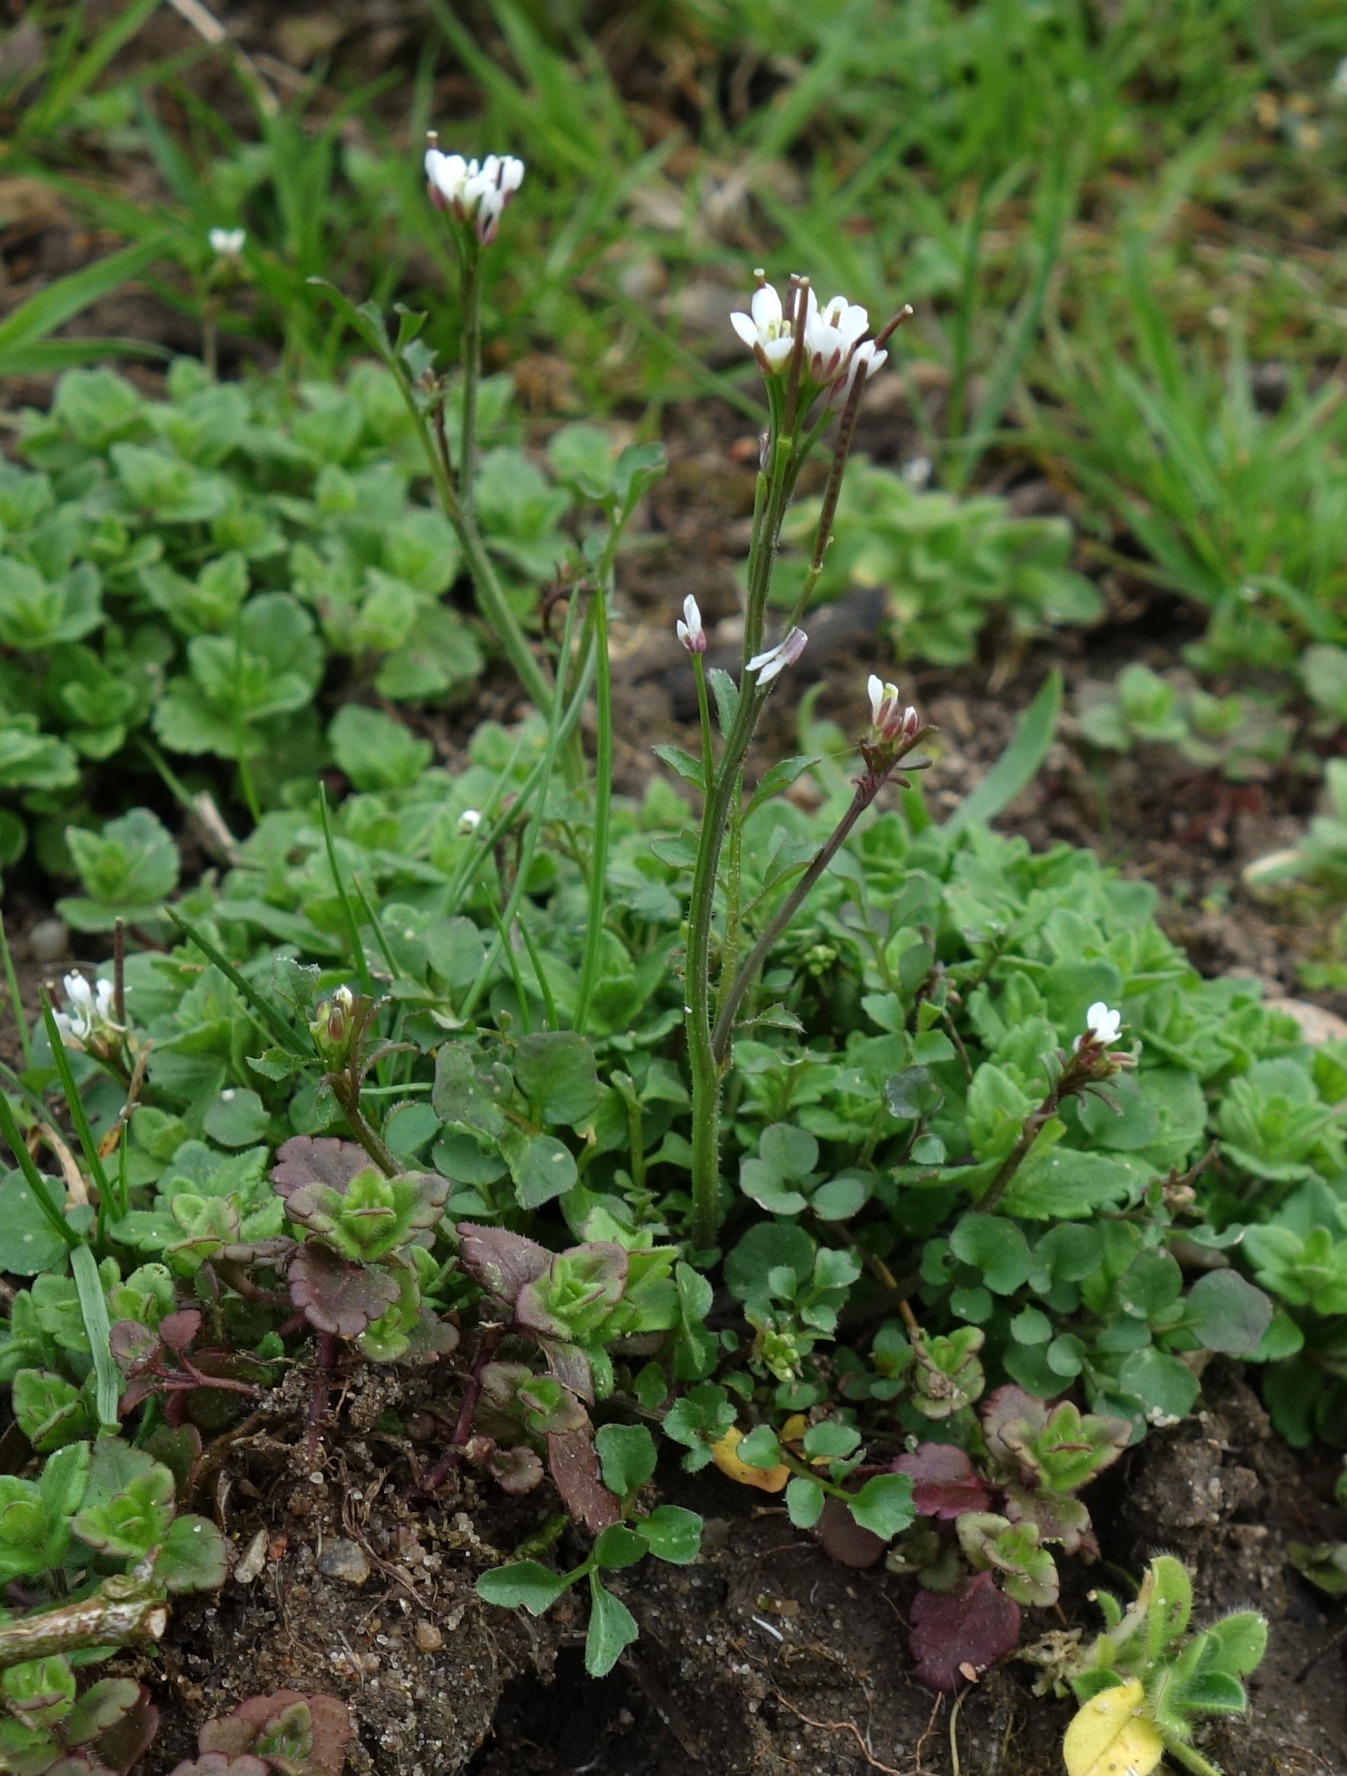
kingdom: Plantae
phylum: Tracheophyta
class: Magnoliopsida
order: Brassicales
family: Brassicaceae
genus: Cardamine
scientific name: Cardamine hirsuta
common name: Roset-springklap
